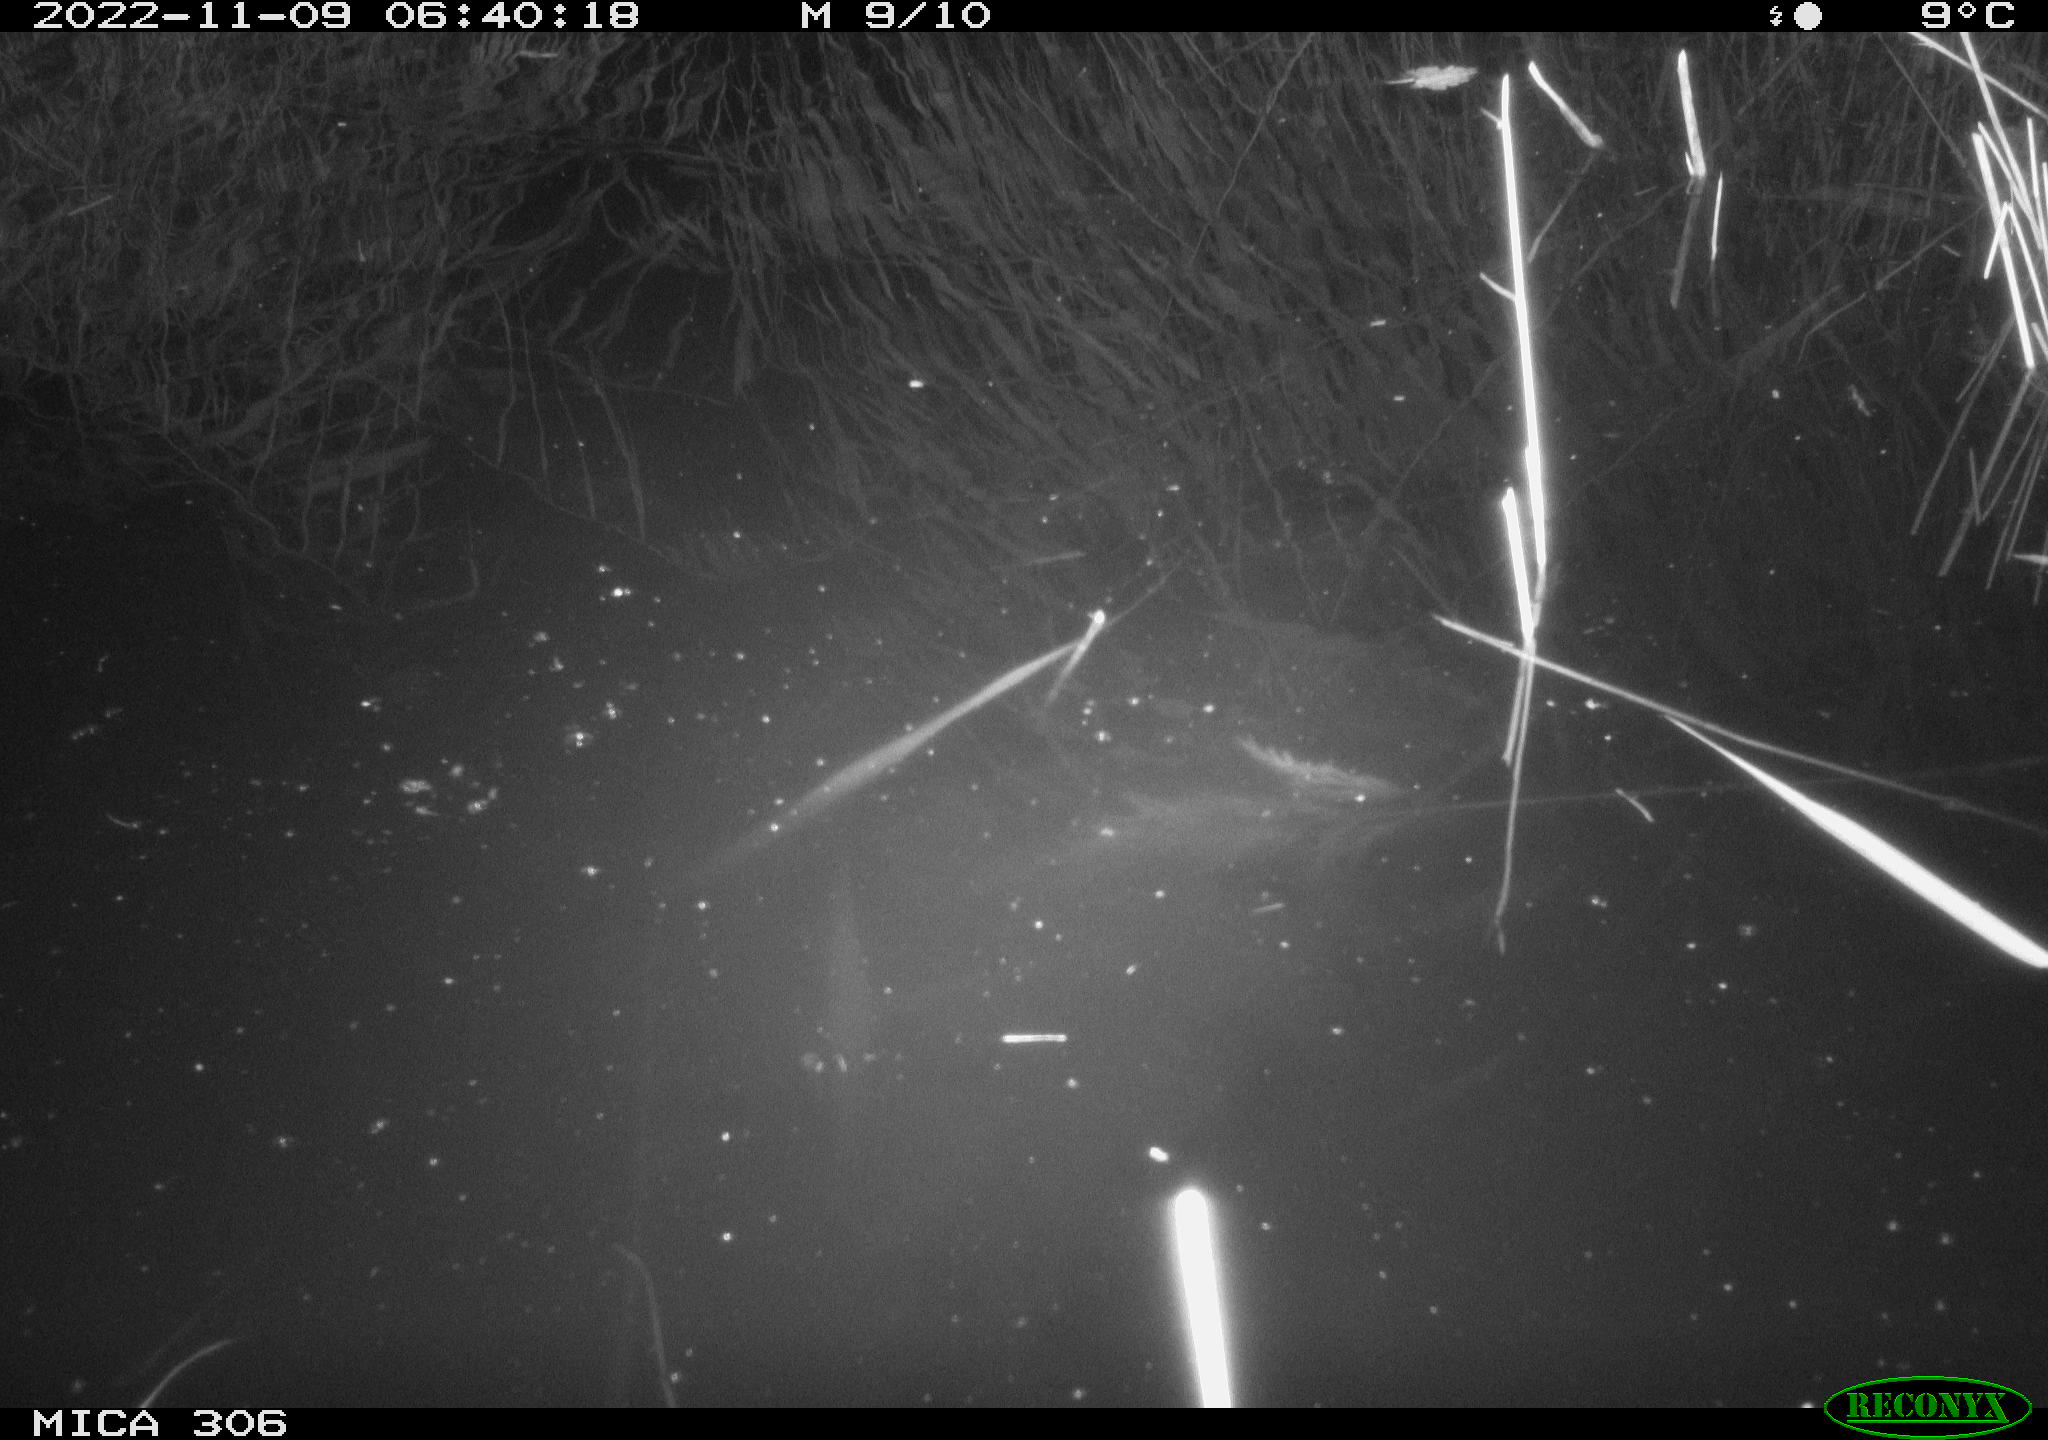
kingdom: Animalia
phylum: Chordata
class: Mammalia
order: Rodentia
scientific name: Rodentia
